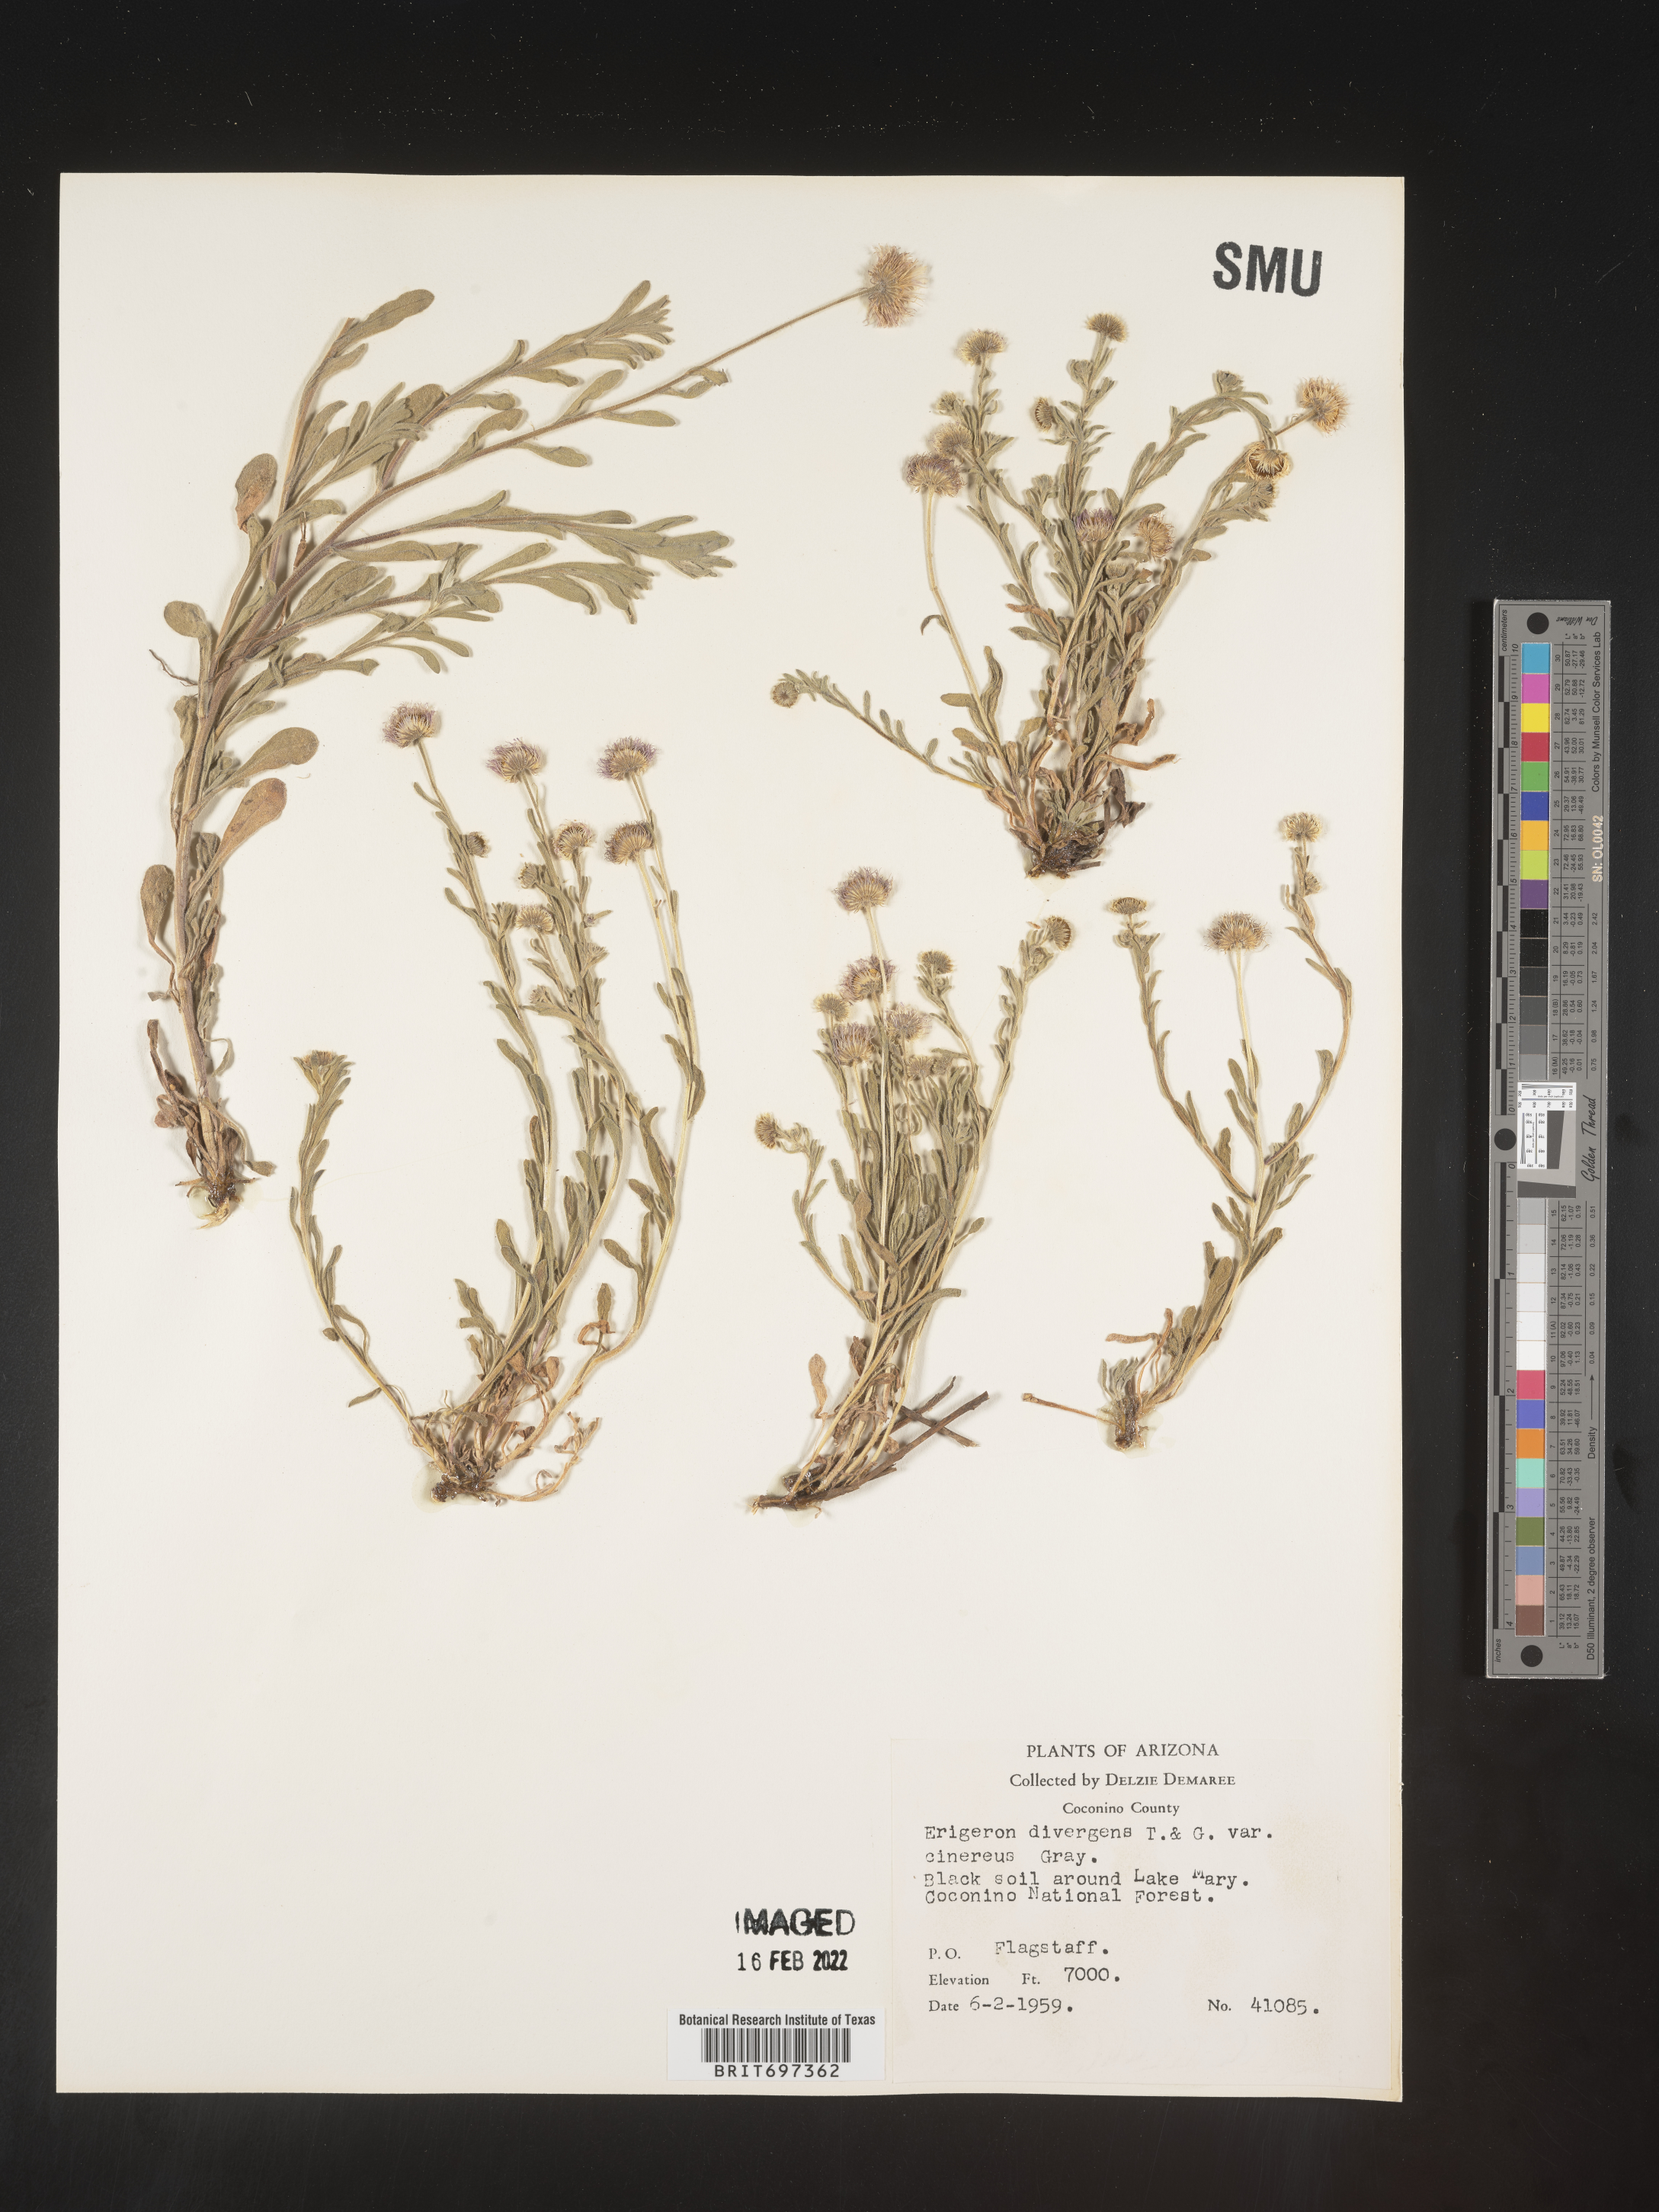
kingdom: Plantae
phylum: Tracheophyta
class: Magnoliopsida
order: Asterales
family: Asteraceae
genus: Erigeron
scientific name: Erigeron divergens
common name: Diffuse fleabane
